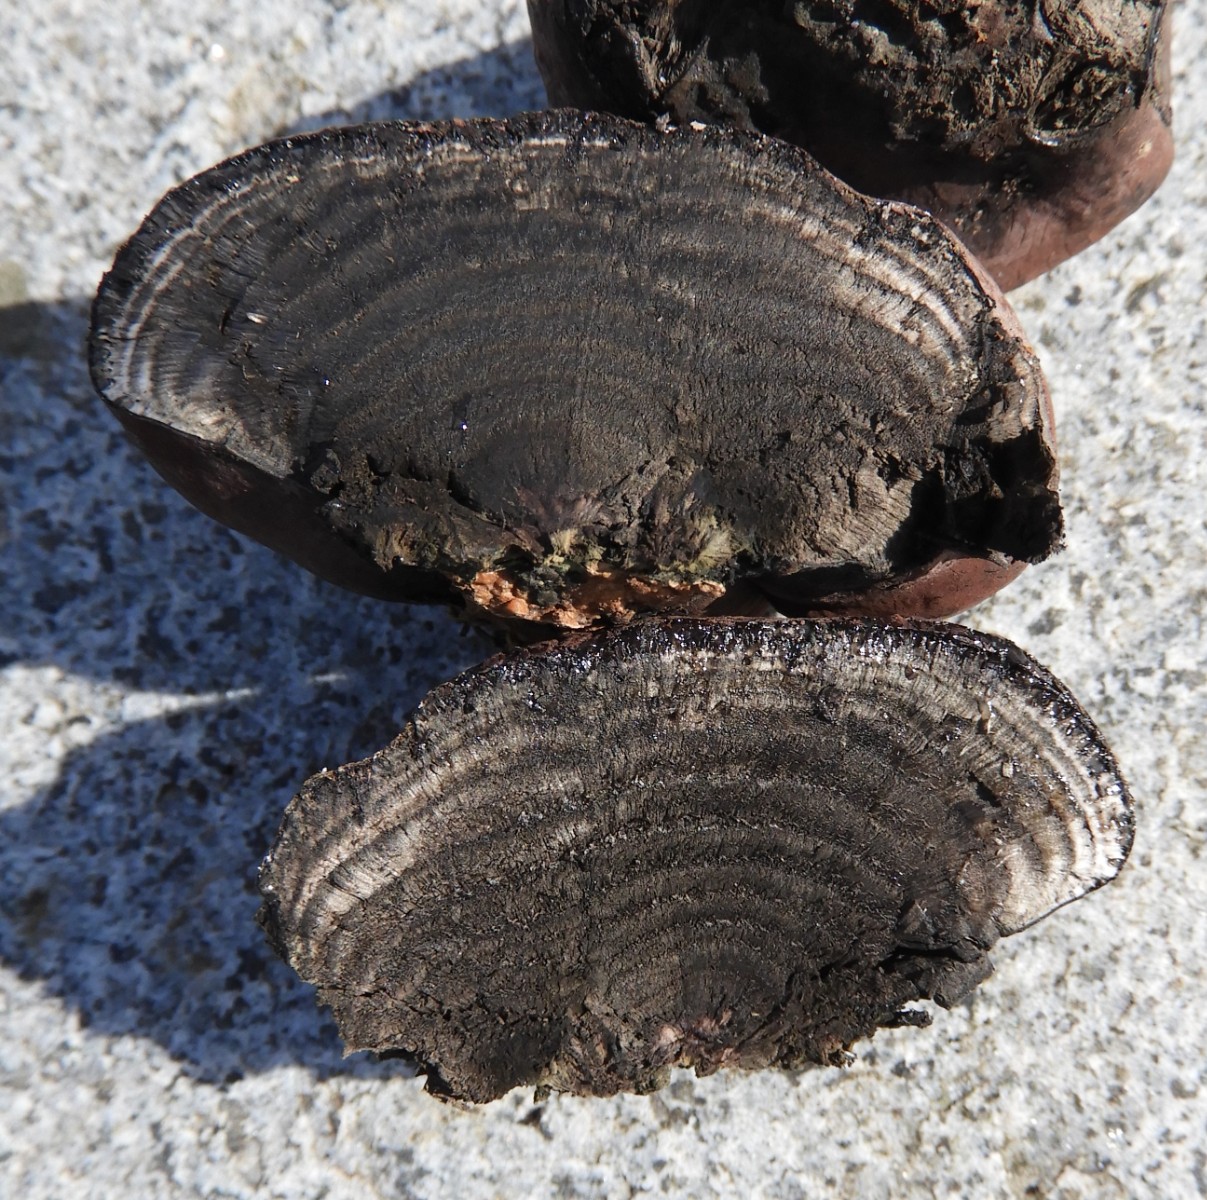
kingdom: Fungi
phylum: Ascomycota
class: Sordariomycetes
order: Xylariales
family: Hypoxylaceae
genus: Daldinia
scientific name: Daldinia concentrica
